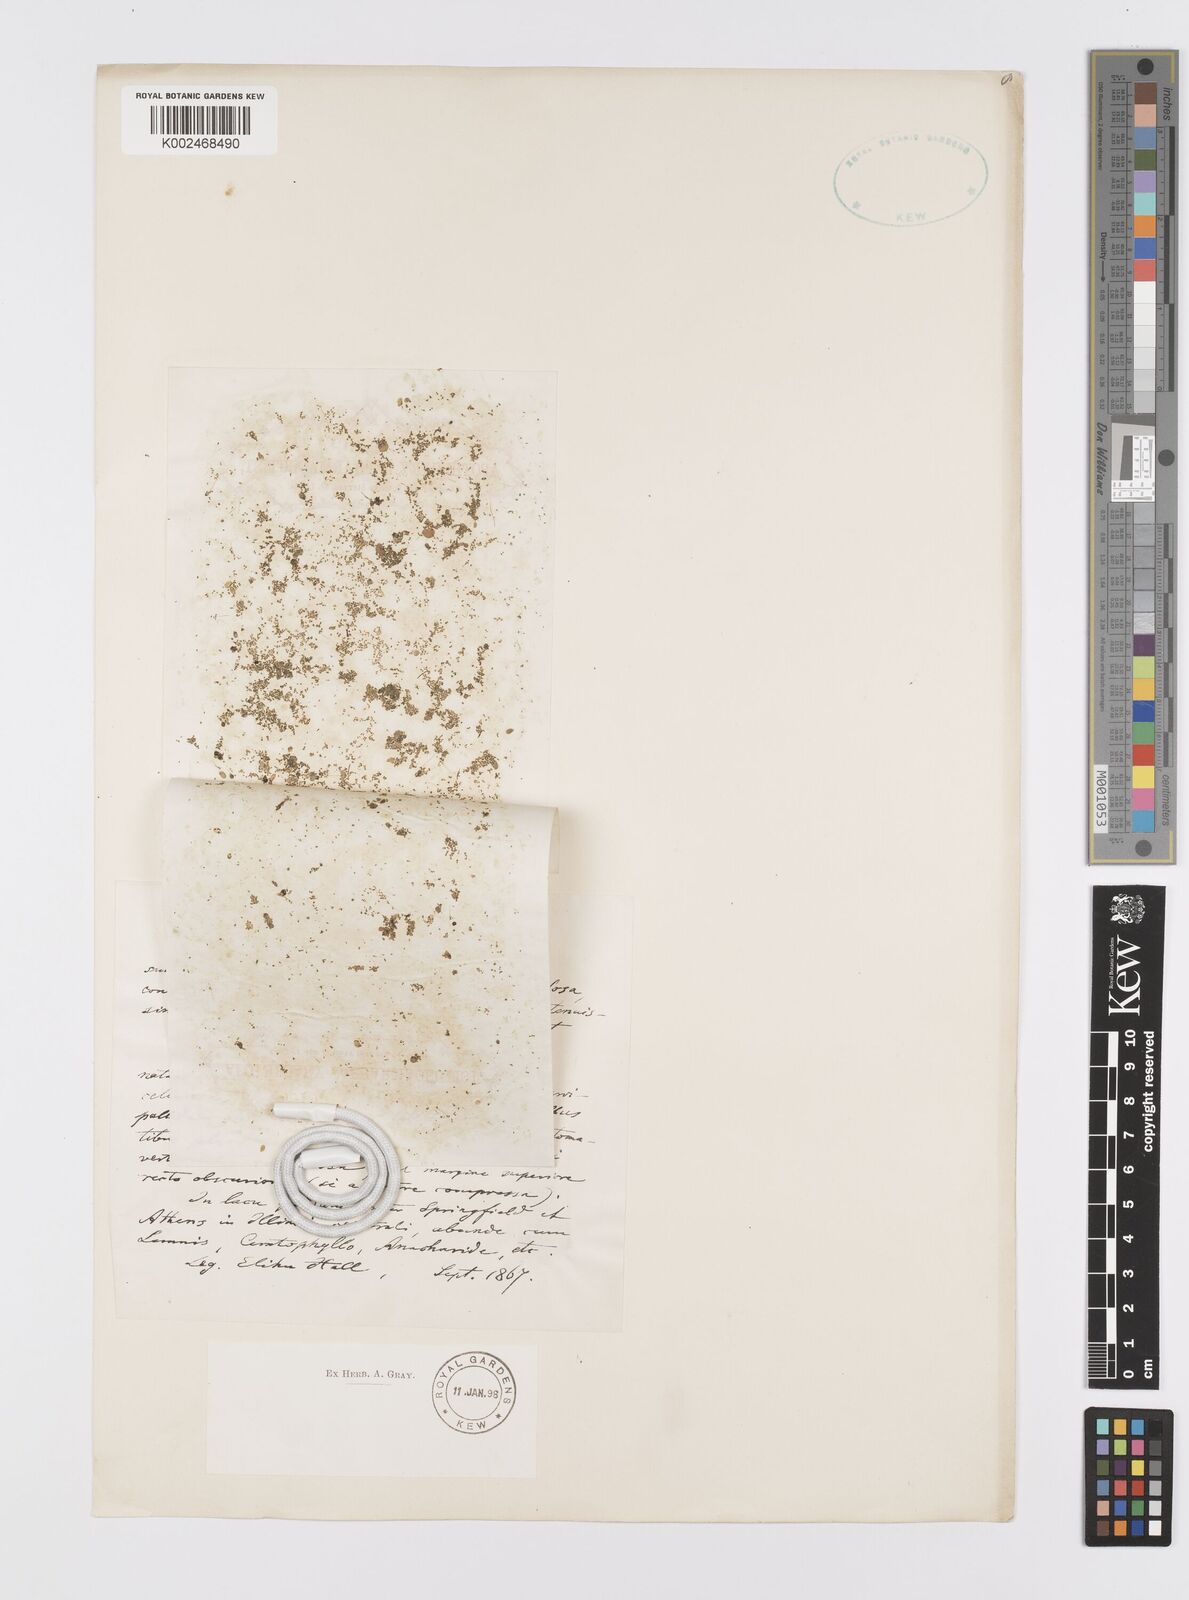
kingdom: Plantae
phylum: Tracheophyta
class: Liliopsida
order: Alismatales
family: Araceae
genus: Wolffia
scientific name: Wolffia columbiana
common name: Columbia watermeal
